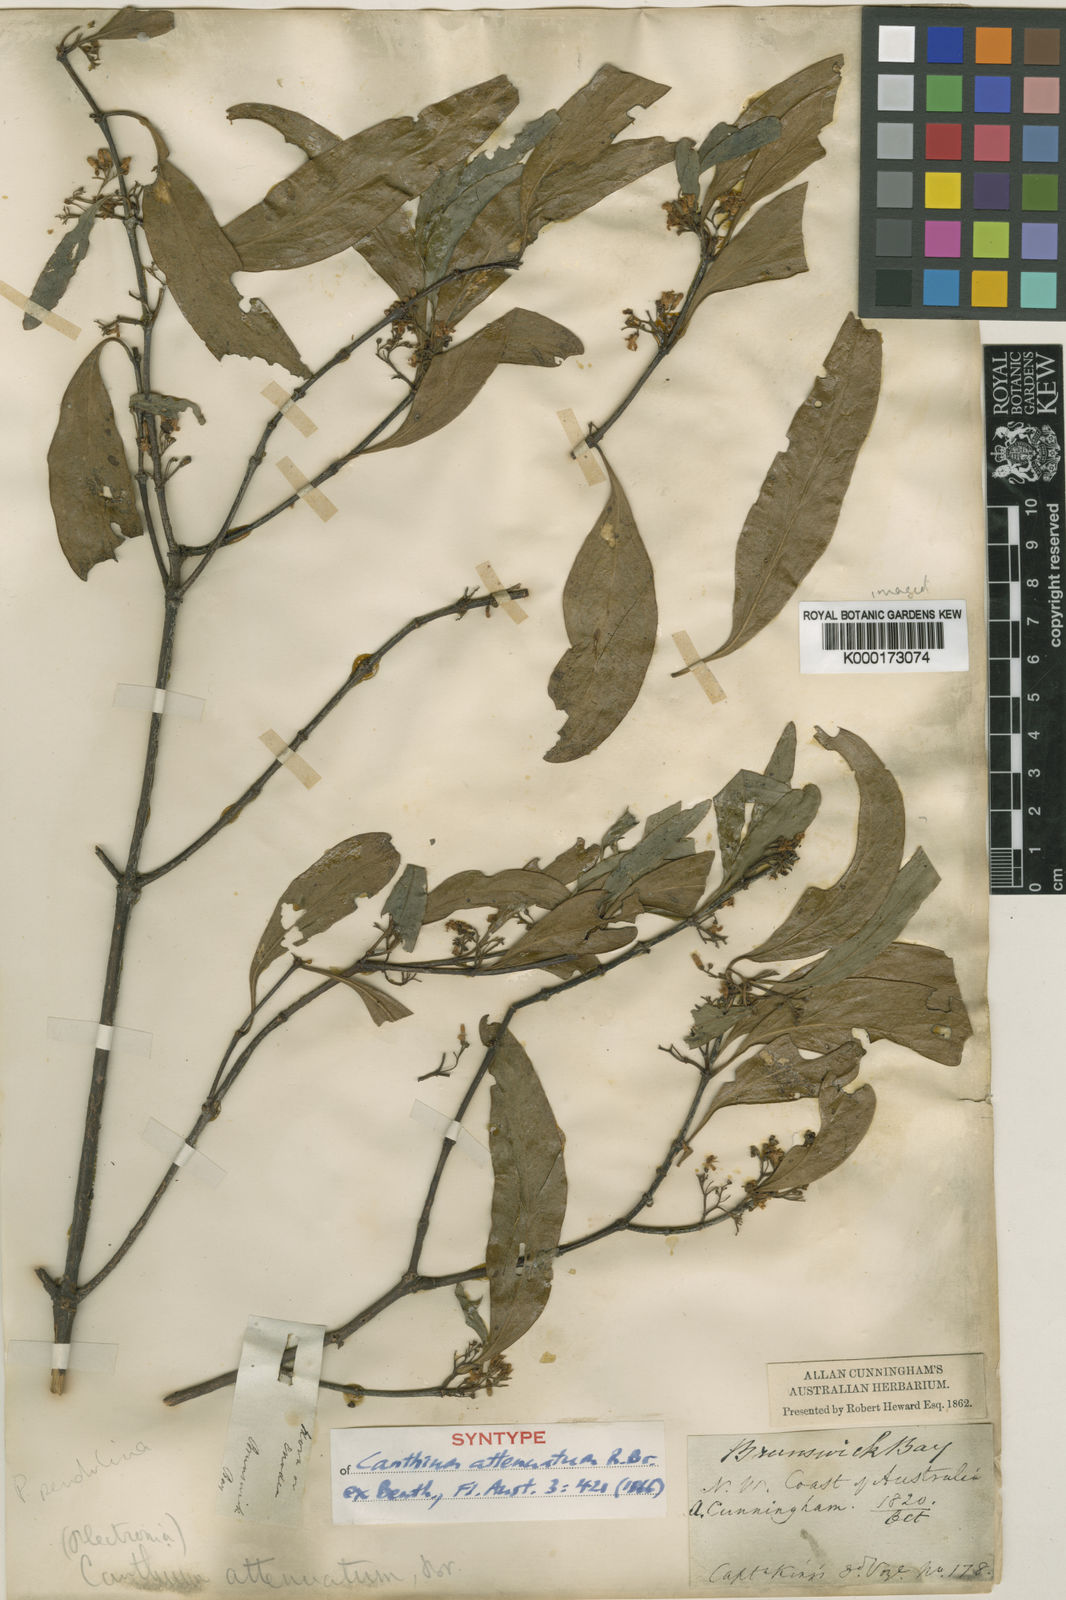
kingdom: Plantae
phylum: Tracheophyta
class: Magnoliopsida
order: Gentianales
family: Rubiaceae
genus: Psydrax
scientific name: Psydrax pendulinus
